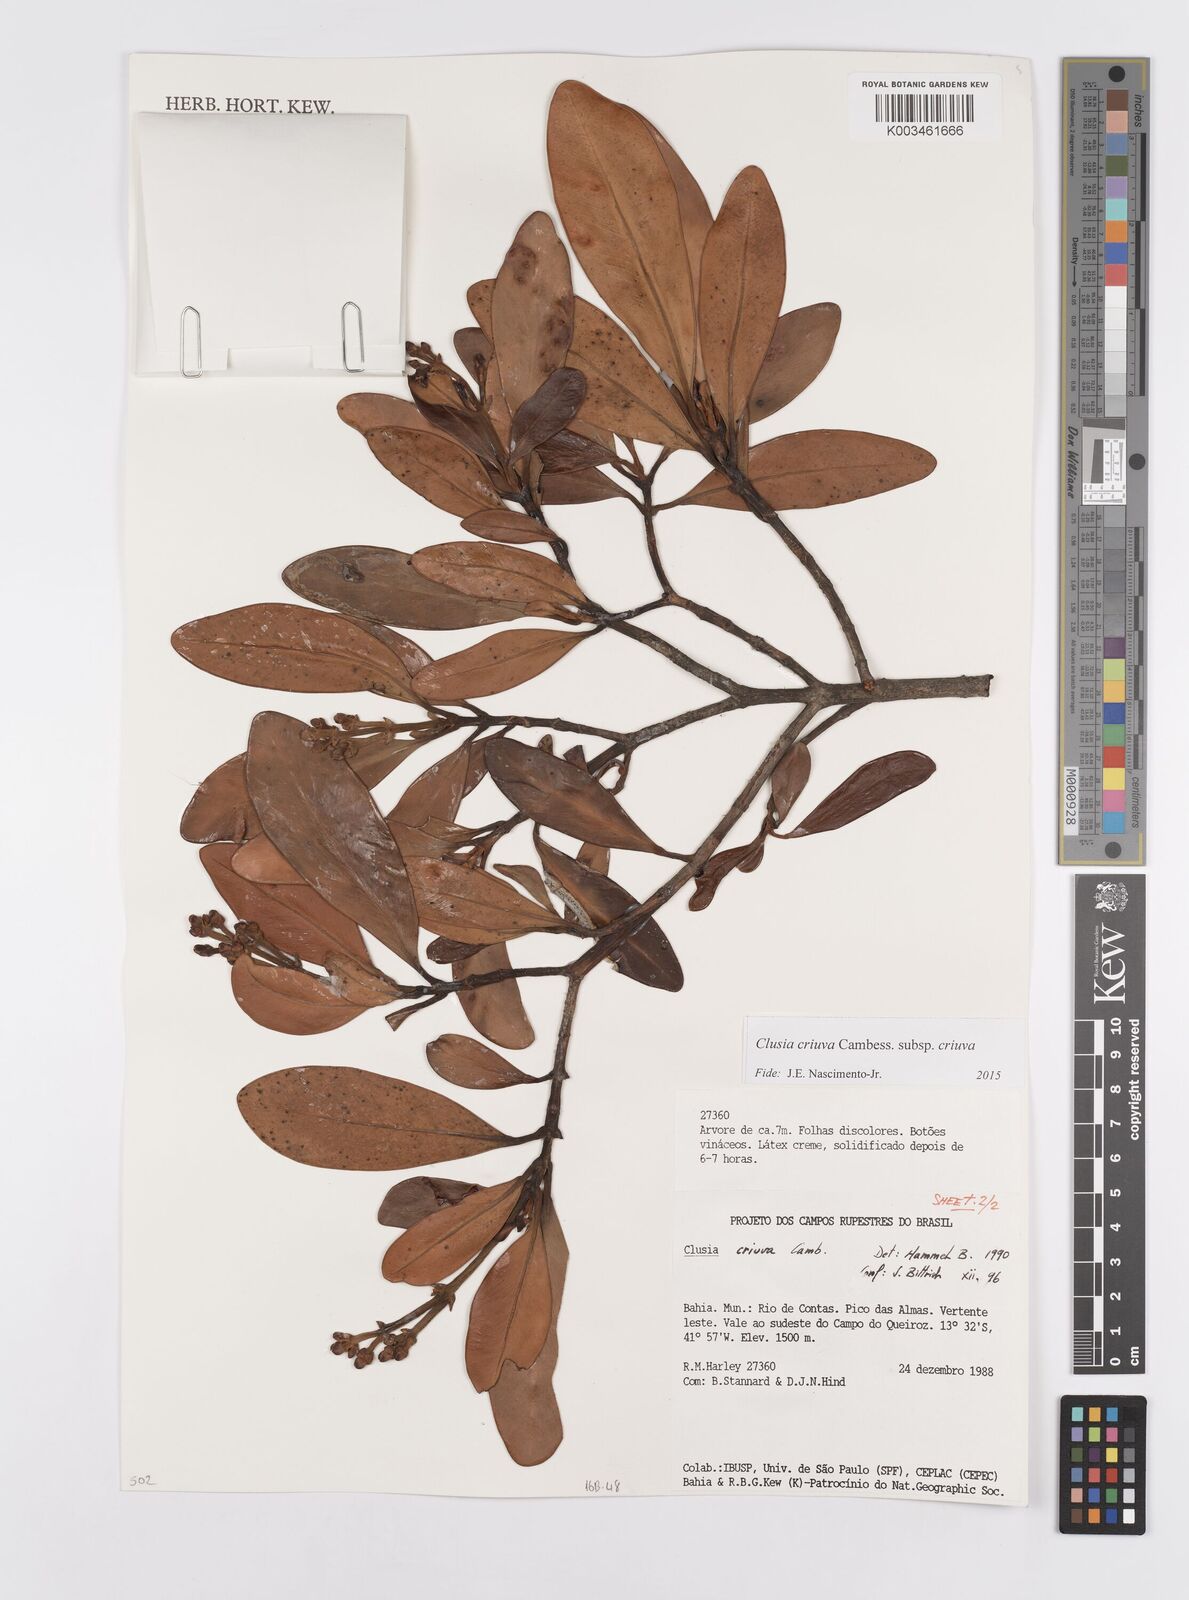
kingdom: Plantae
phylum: Tracheophyta
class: Magnoliopsida
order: Malpighiales
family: Clusiaceae
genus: Clusia
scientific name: Clusia criuva
